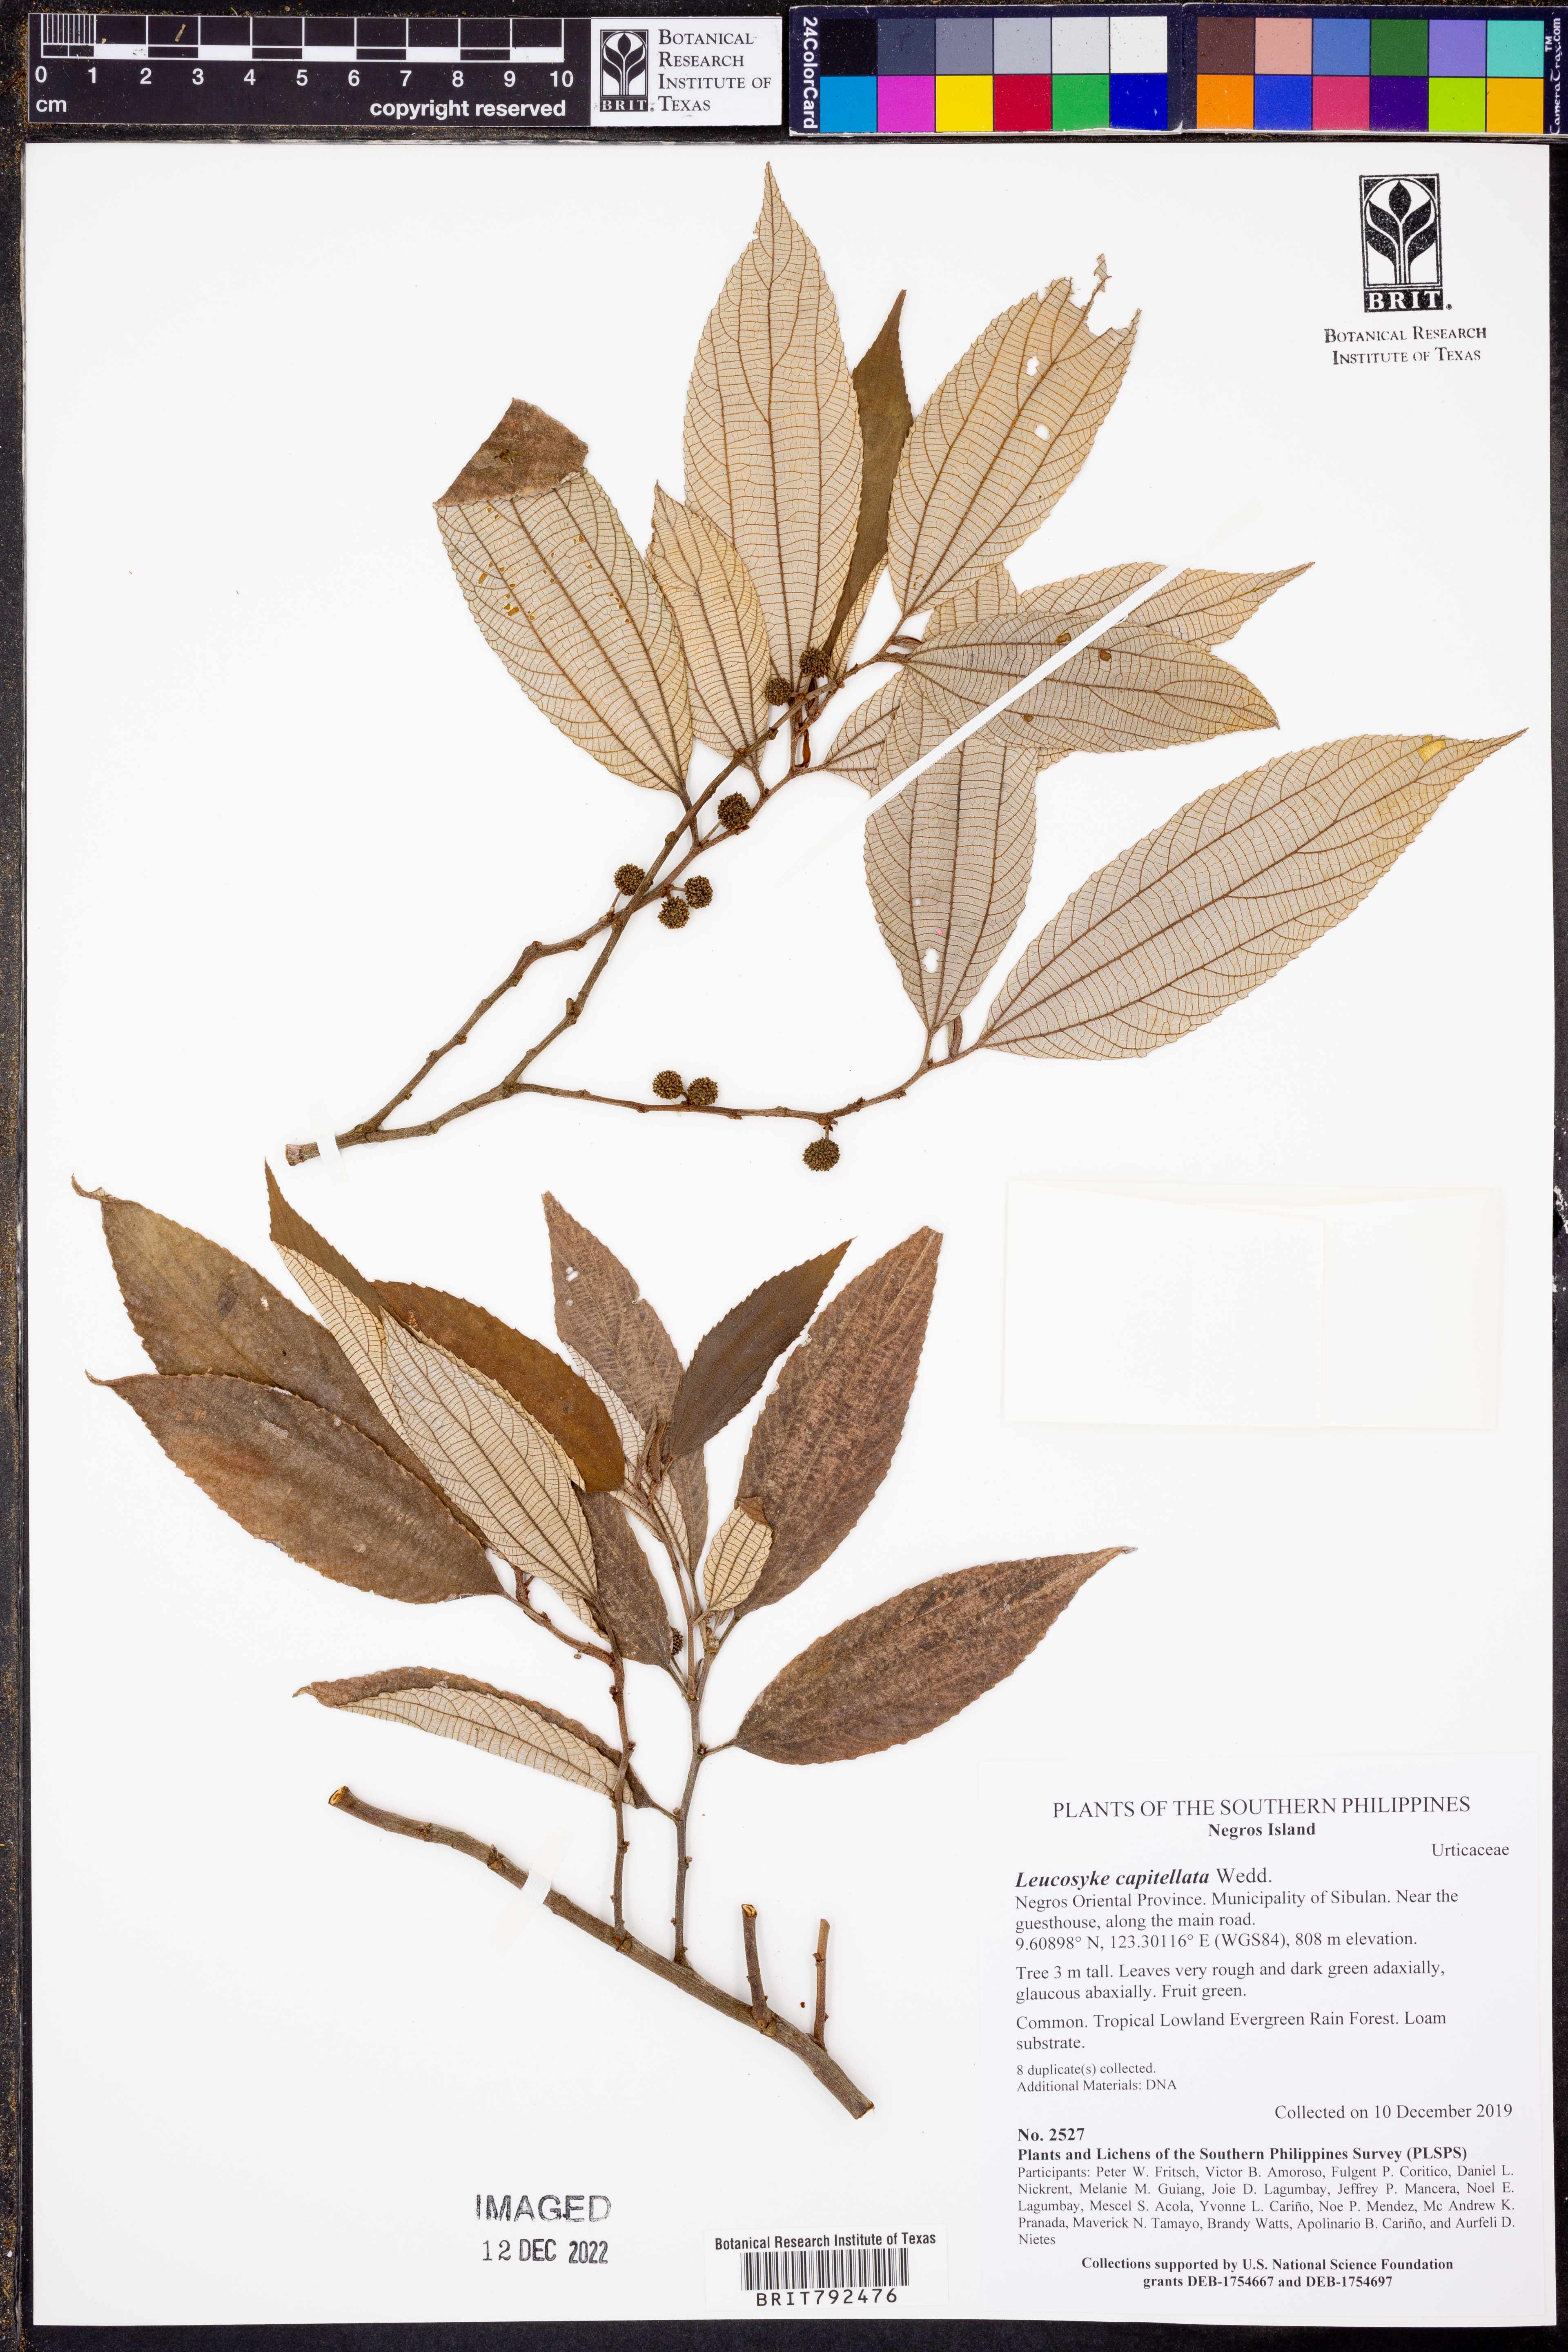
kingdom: Plantae
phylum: Tracheophyta
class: Magnoliopsida
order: Rosales
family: Urticaceae
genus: Leucosyke
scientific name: Leucosyke capitellata
